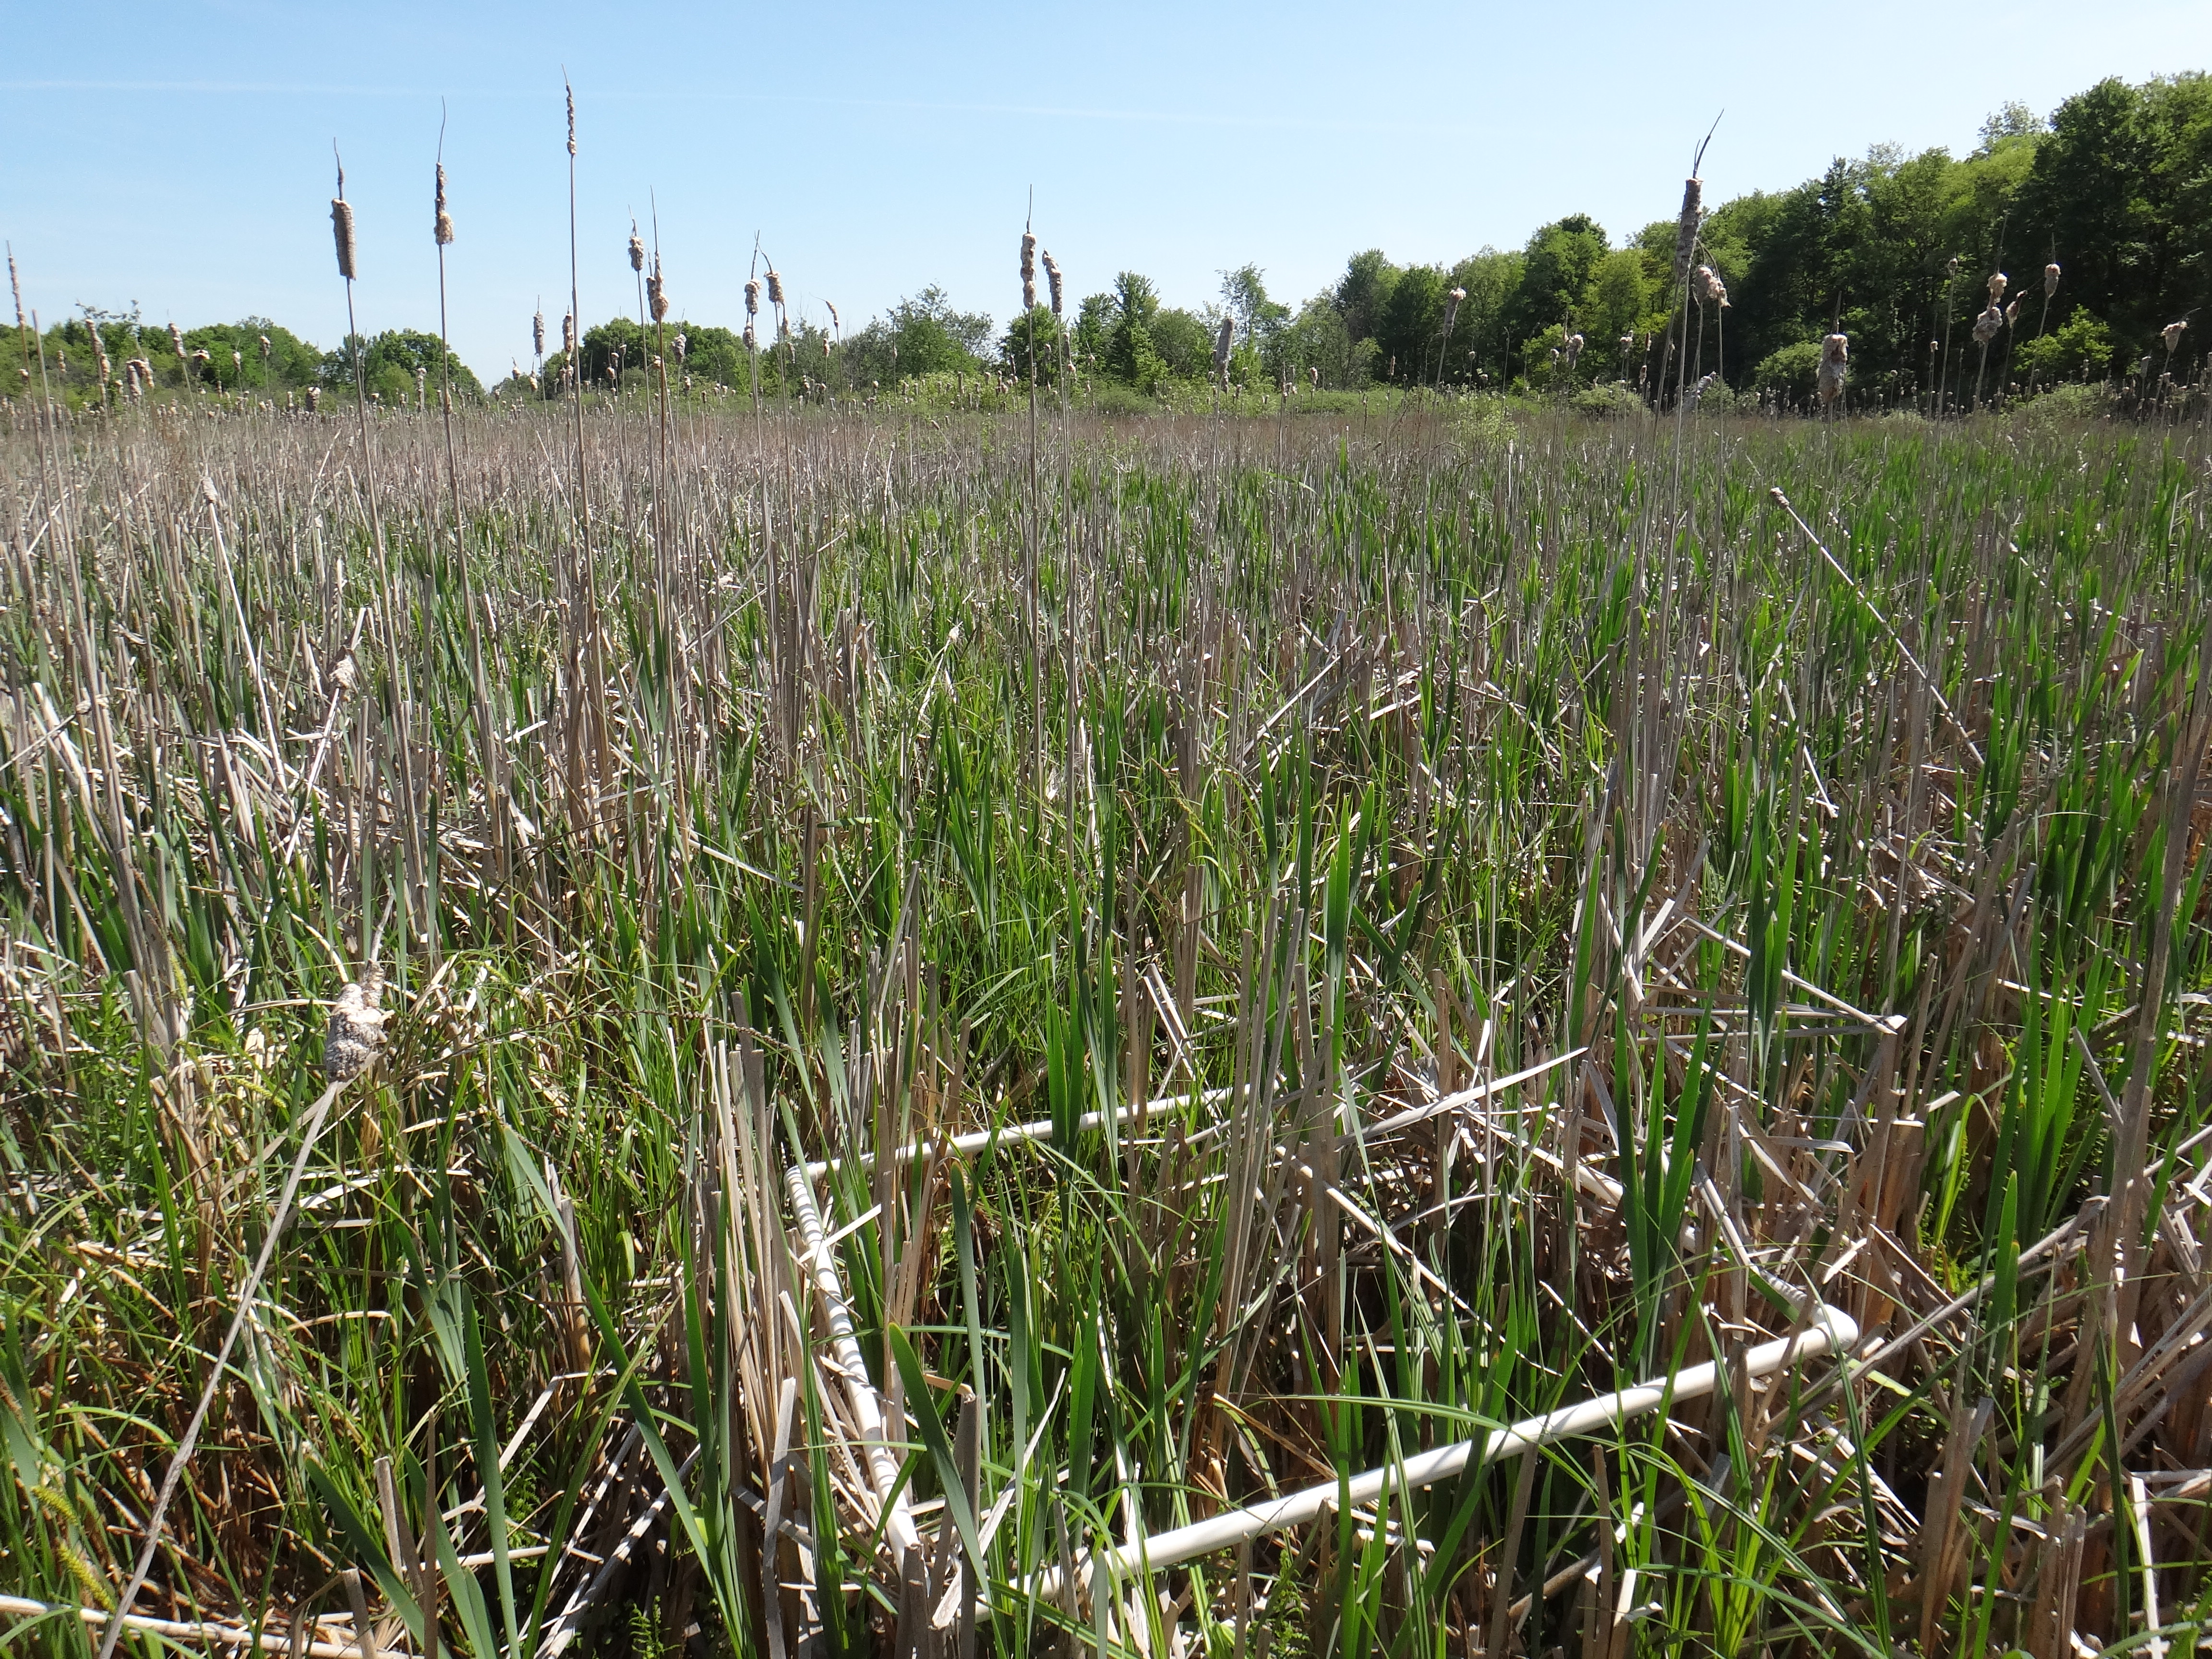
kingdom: Plantae
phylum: Tracheophyta
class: Liliopsida
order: Poales
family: Typhaceae
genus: Typha
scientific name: Typha latifolia
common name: Broadleaf cattail
